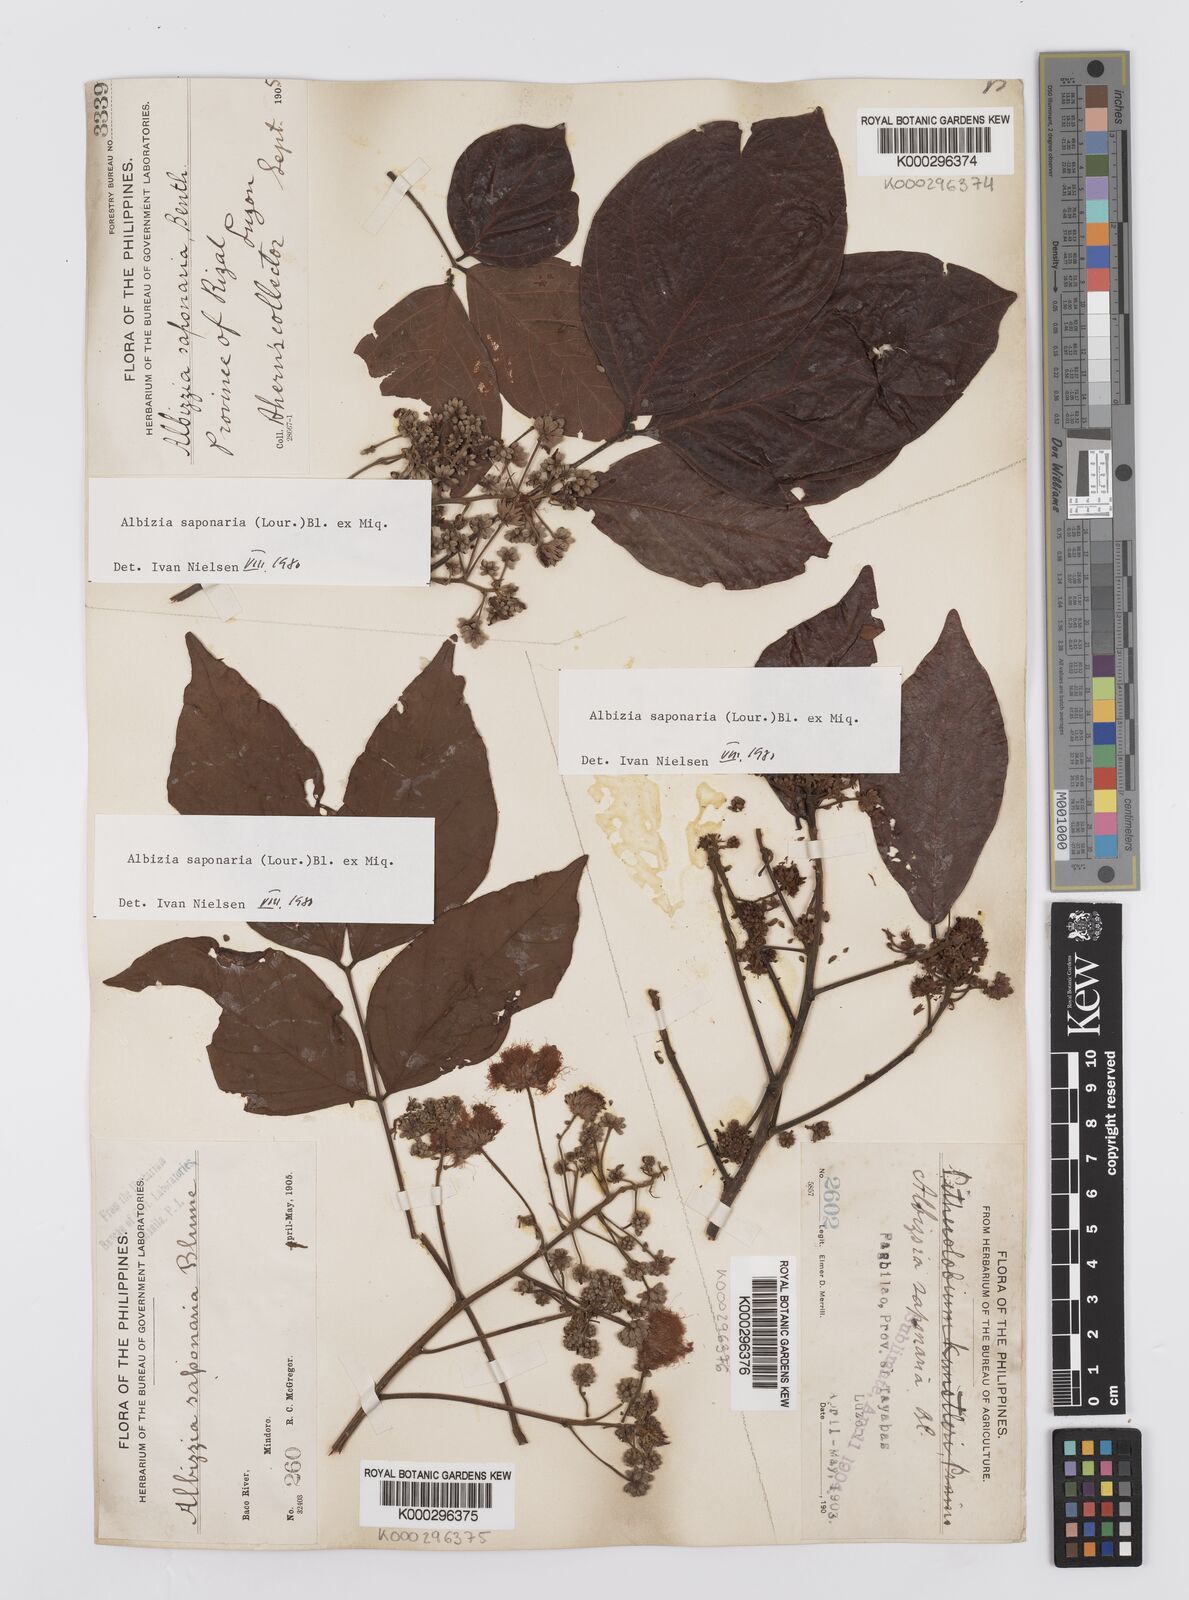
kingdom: Plantae
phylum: Tracheophyta
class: Magnoliopsida
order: Fabales
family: Fabaceae
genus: Albizia
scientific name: Albizia saponaria
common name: Whiteflower albizia
